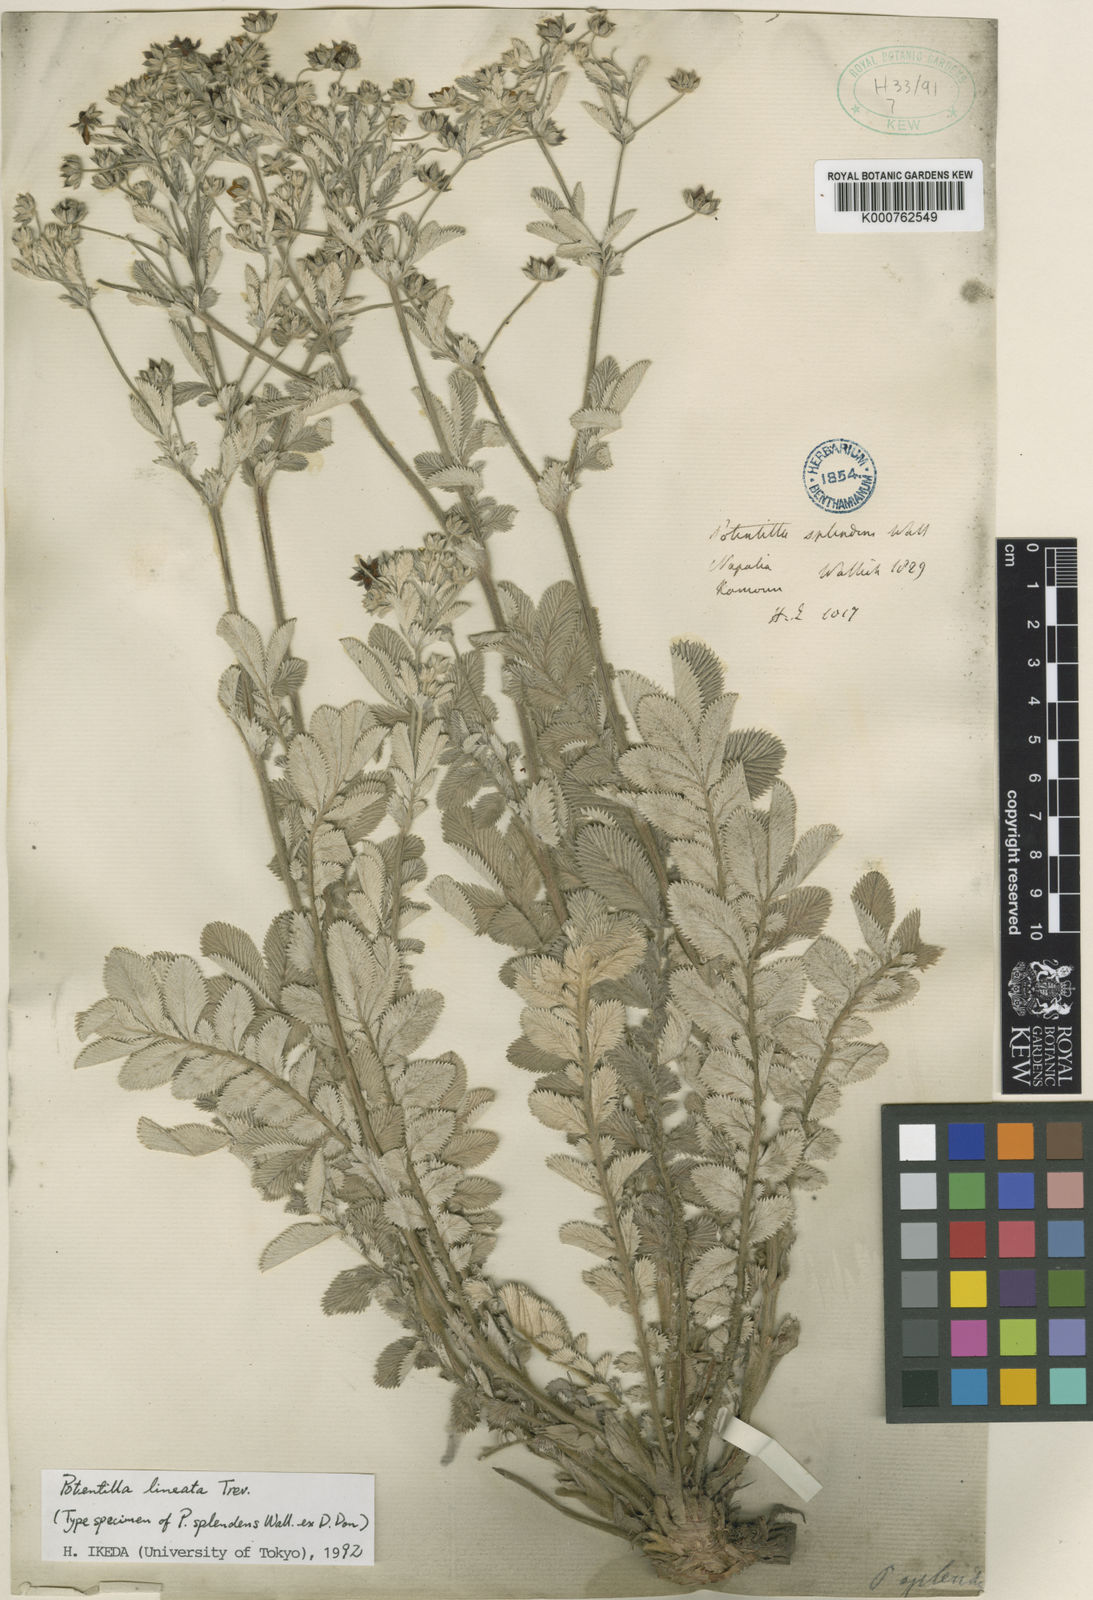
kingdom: Plantae
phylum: Tracheophyta
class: Magnoliopsida
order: Rosales
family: Rosaceae
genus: Argentina
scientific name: Argentina lineata
